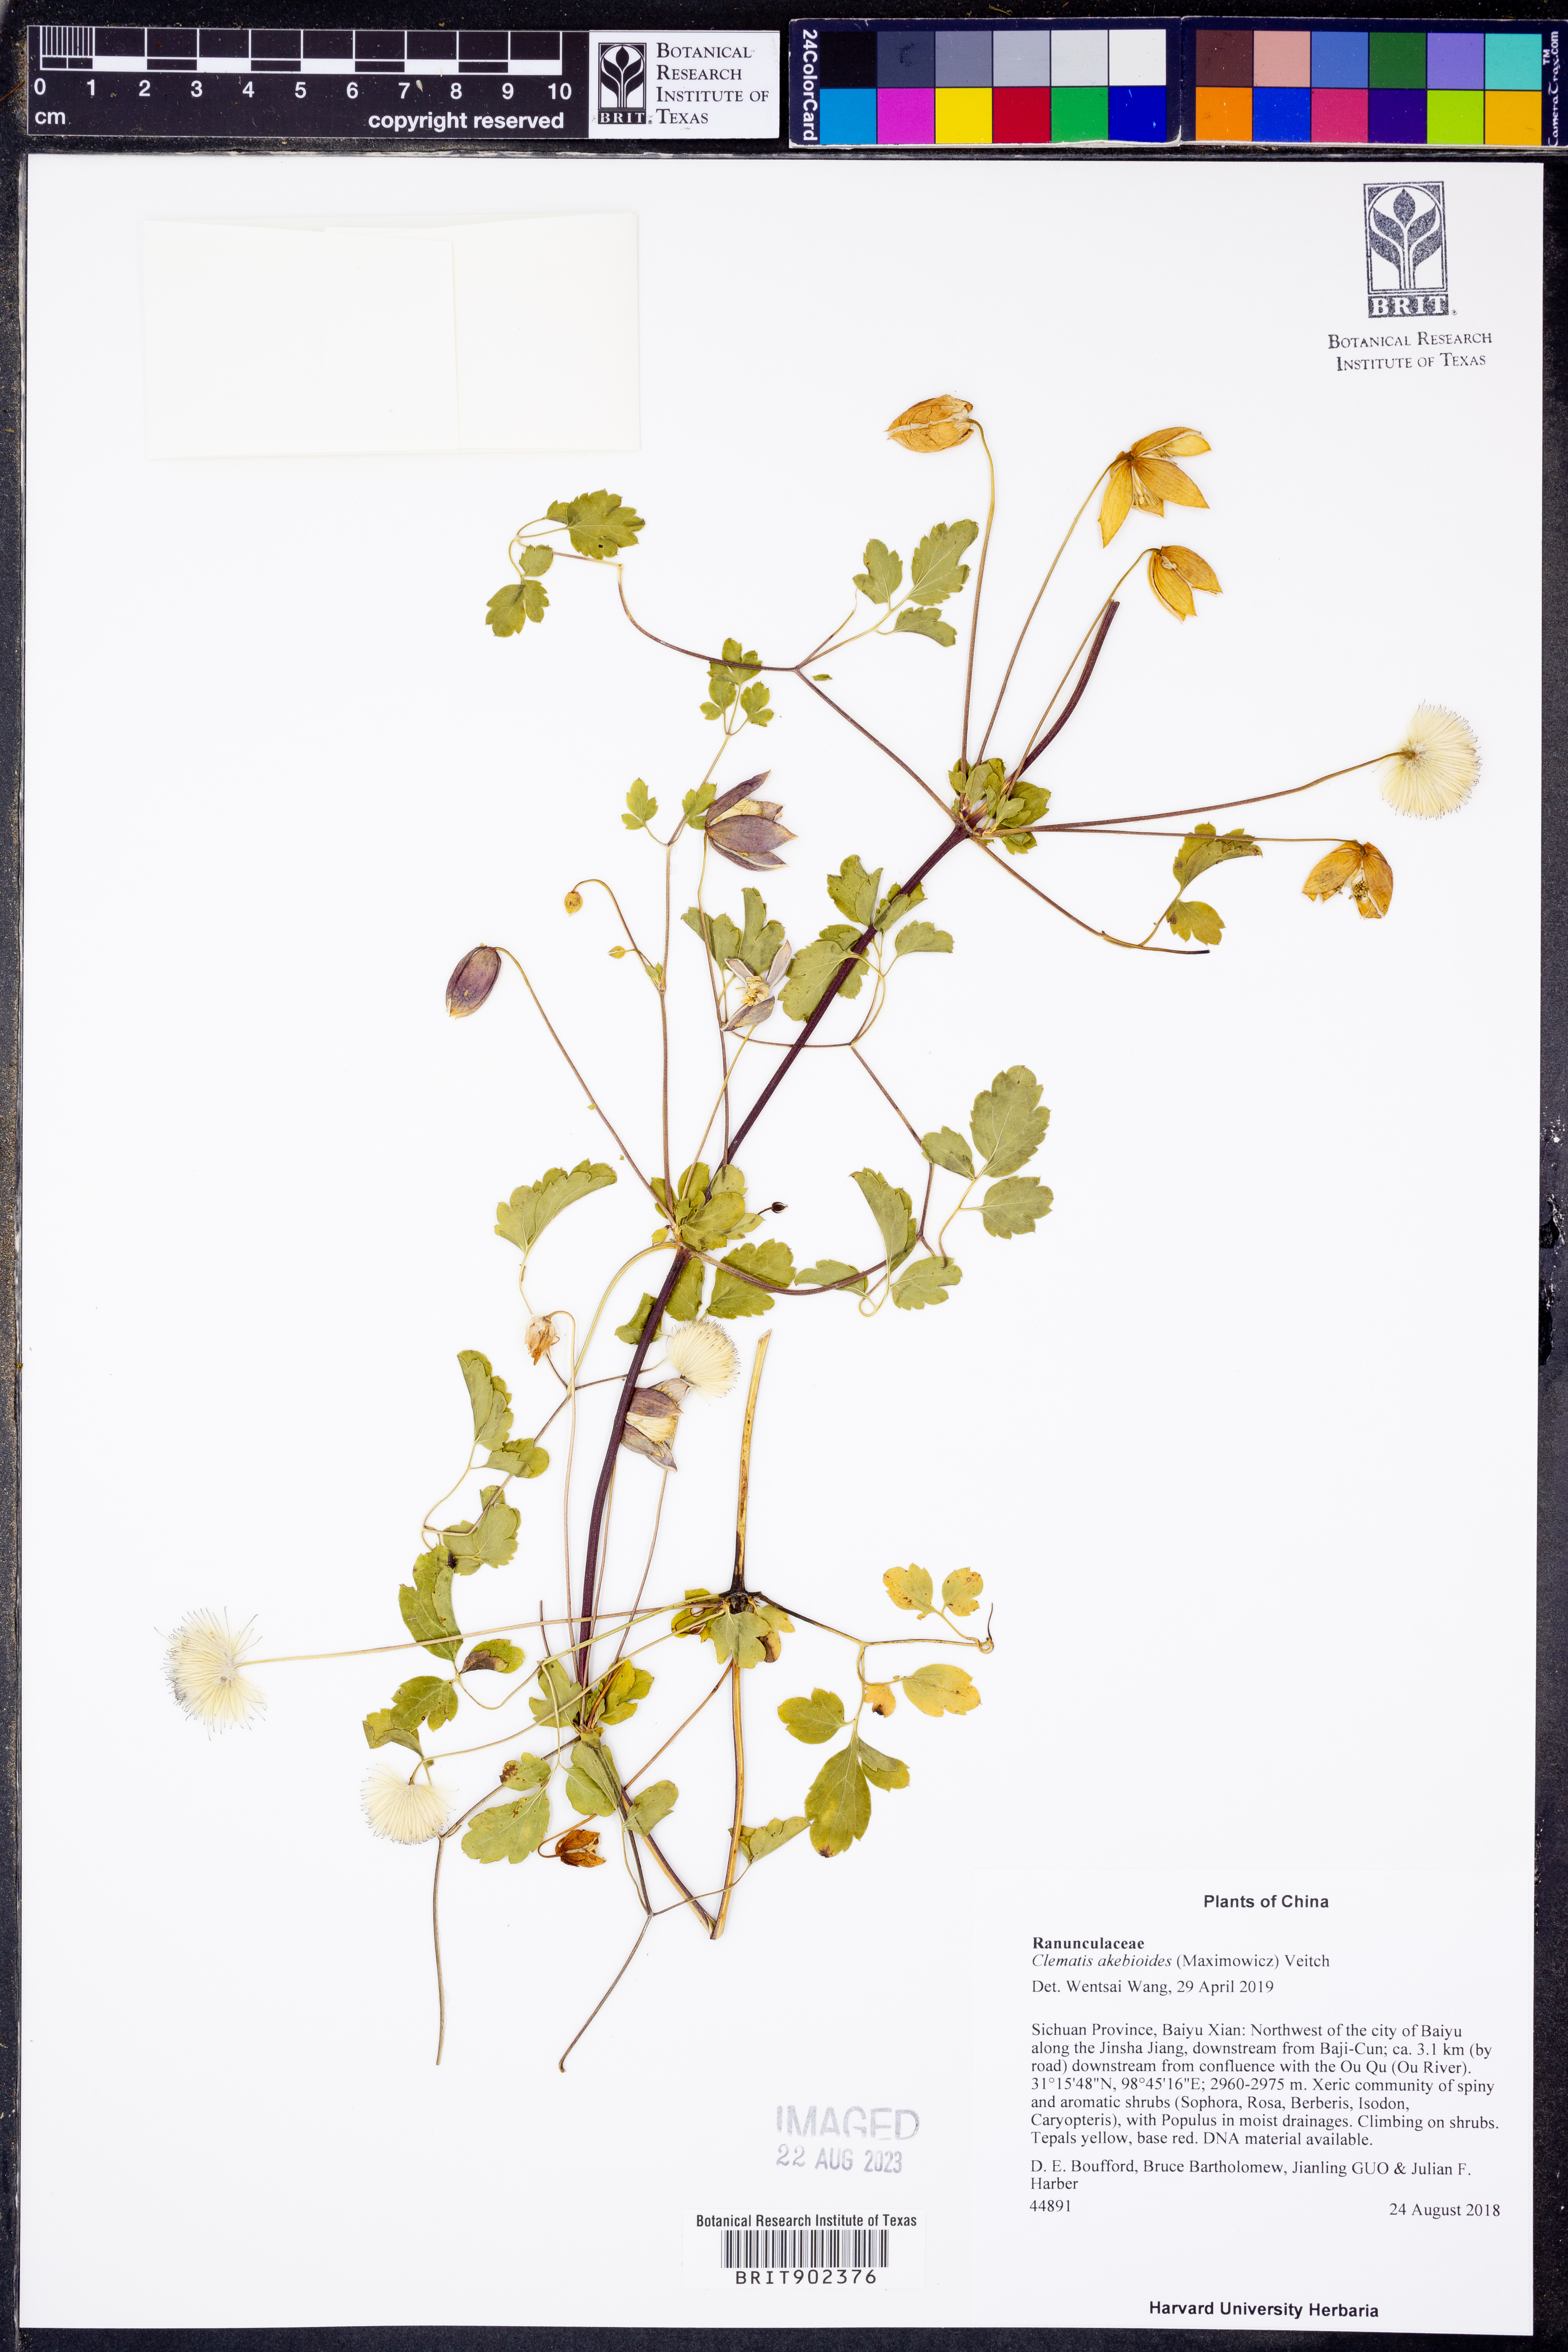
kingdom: Plantae
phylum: Tracheophyta
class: Magnoliopsida
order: Ranunculales
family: Ranunculaceae
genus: Clematis
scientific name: Clematis akebioides
